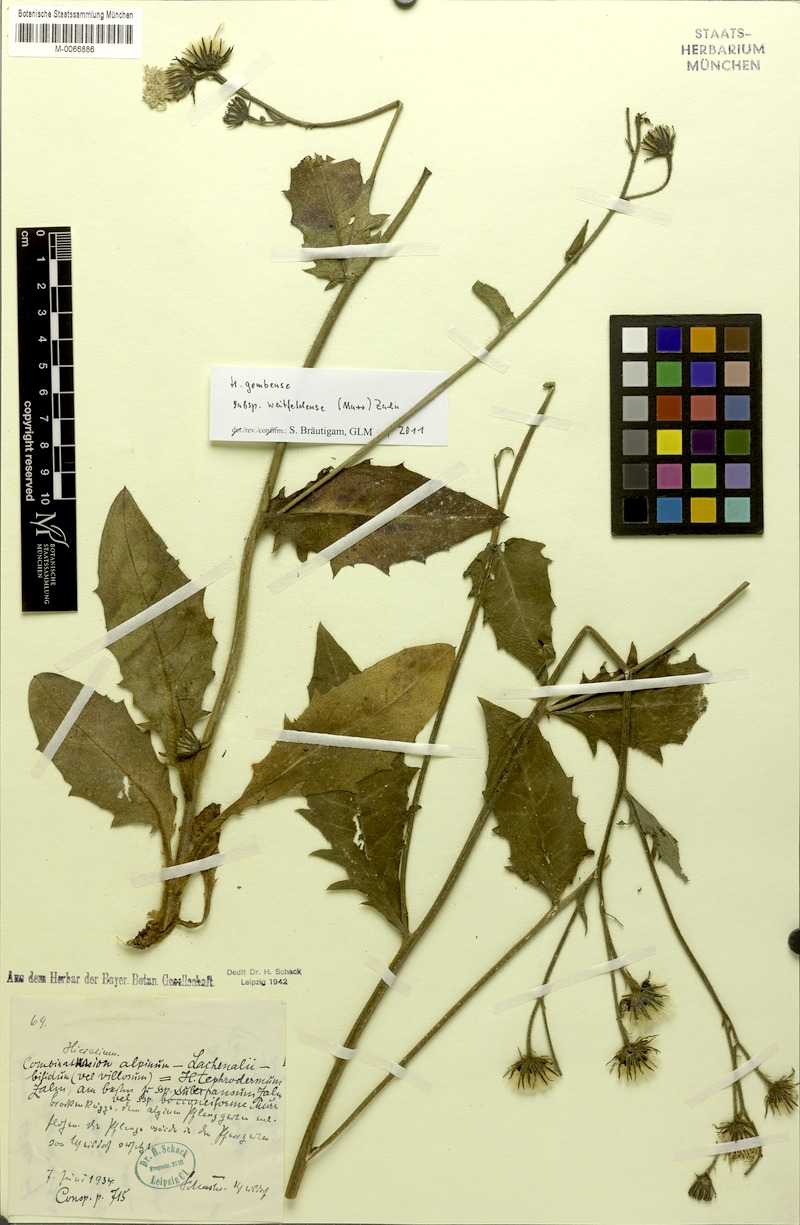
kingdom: Plantae
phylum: Tracheophyta
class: Magnoliopsida
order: Asterales
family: Asteraceae
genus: Hieracium
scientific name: Hieracium gombense
